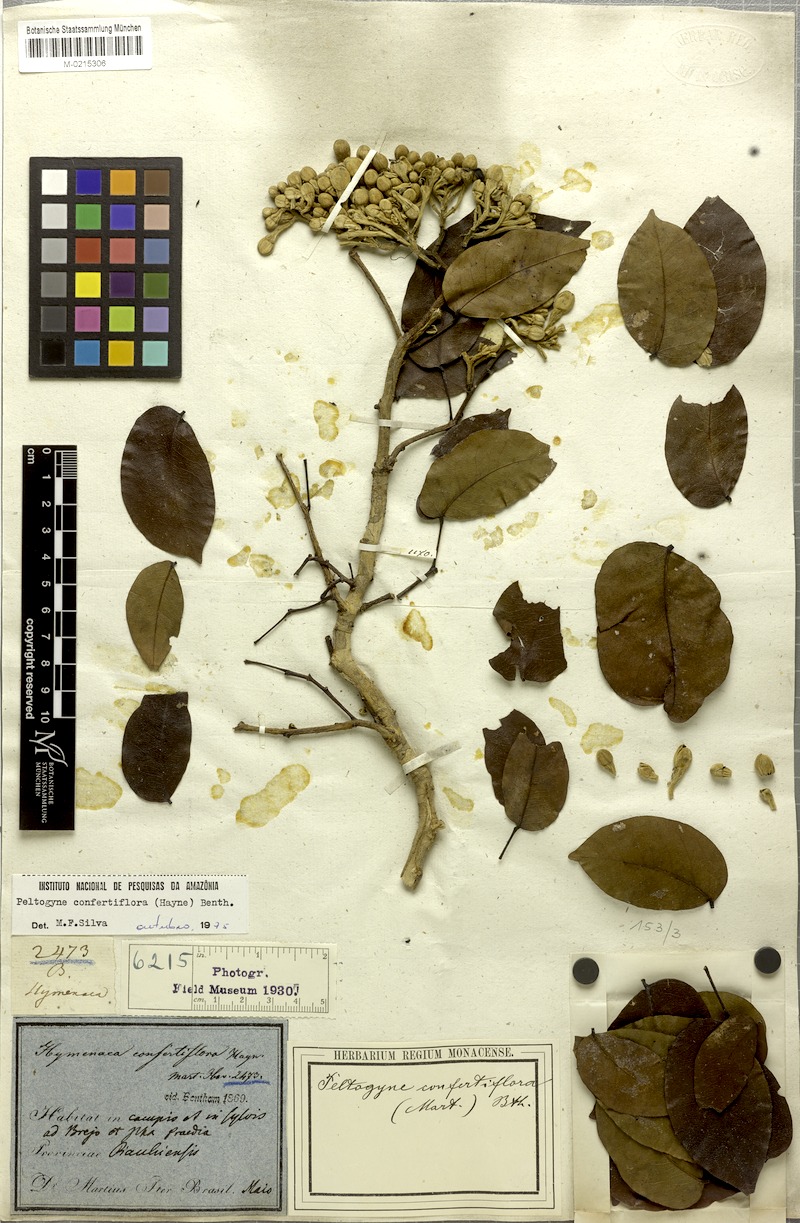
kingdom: Plantae
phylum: Tracheophyta
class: Magnoliopsida
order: Fabales
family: Fabaceae
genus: Peltogyne
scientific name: Peltogyne confertiflora
